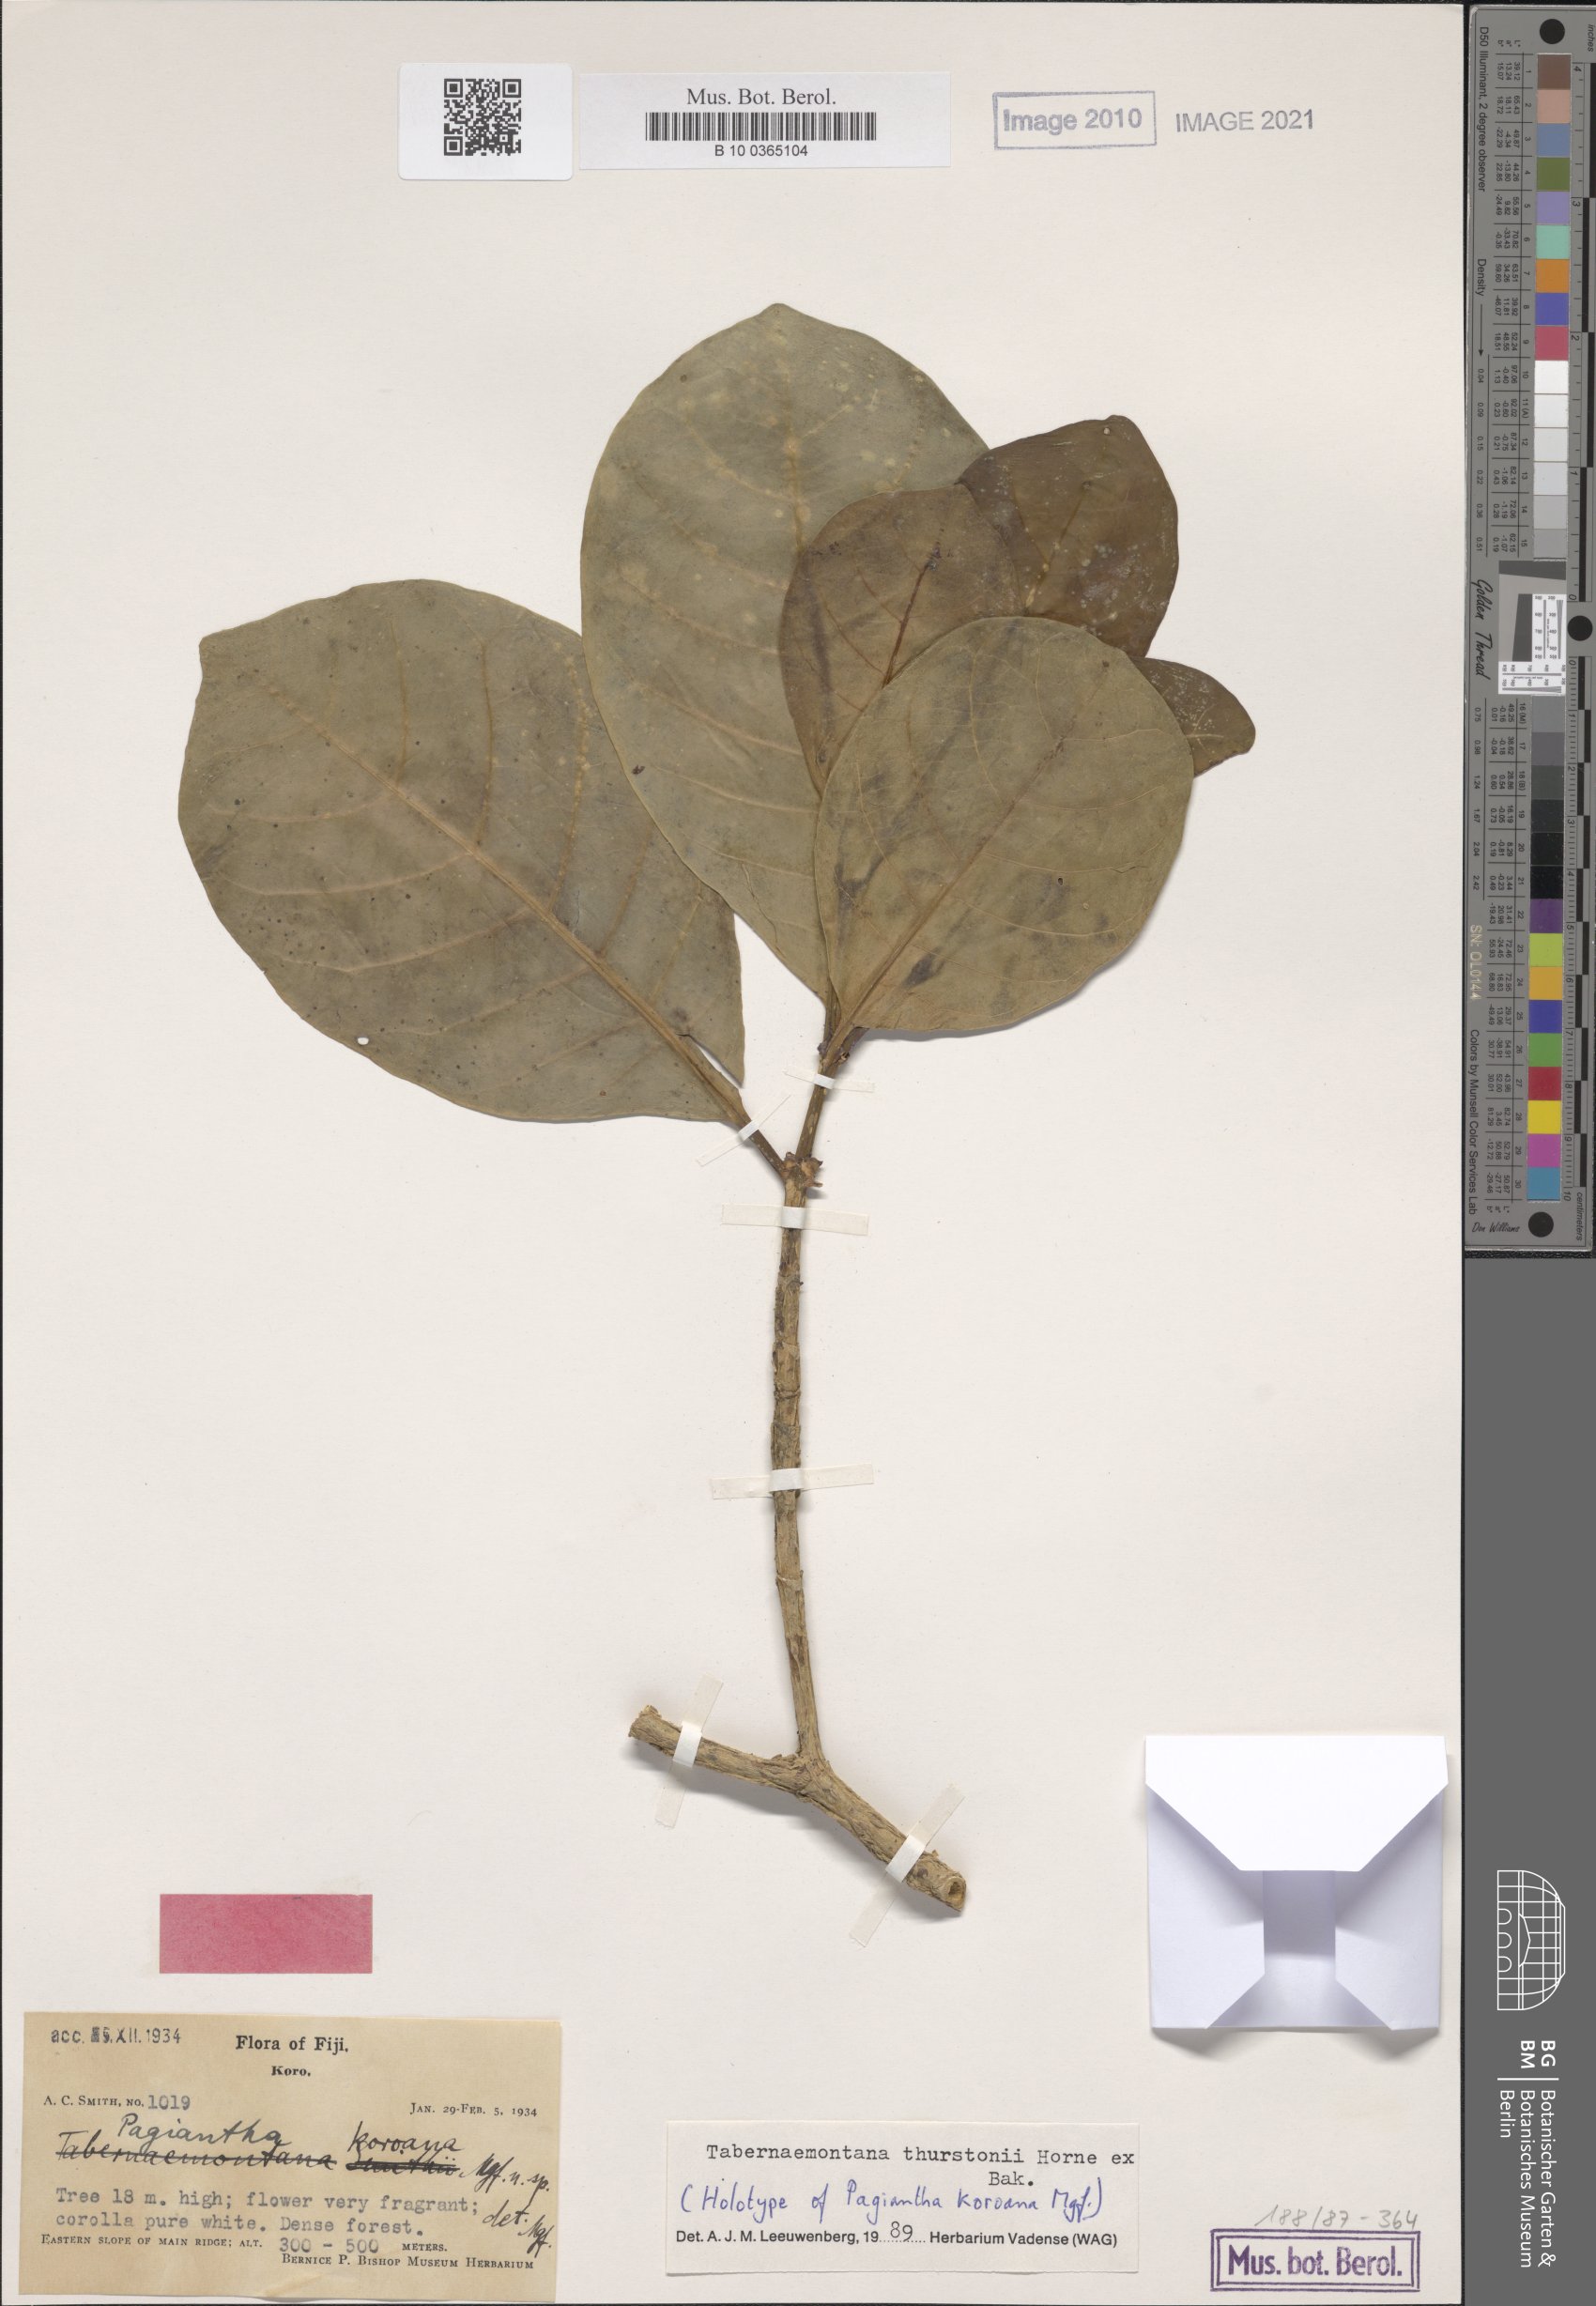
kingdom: Plantae
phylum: Tracheophyta
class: Magnoliopsida
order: Gentianales
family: Apocynaceae
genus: Tabernaemontana
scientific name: Tabernaemontana thurstonii
